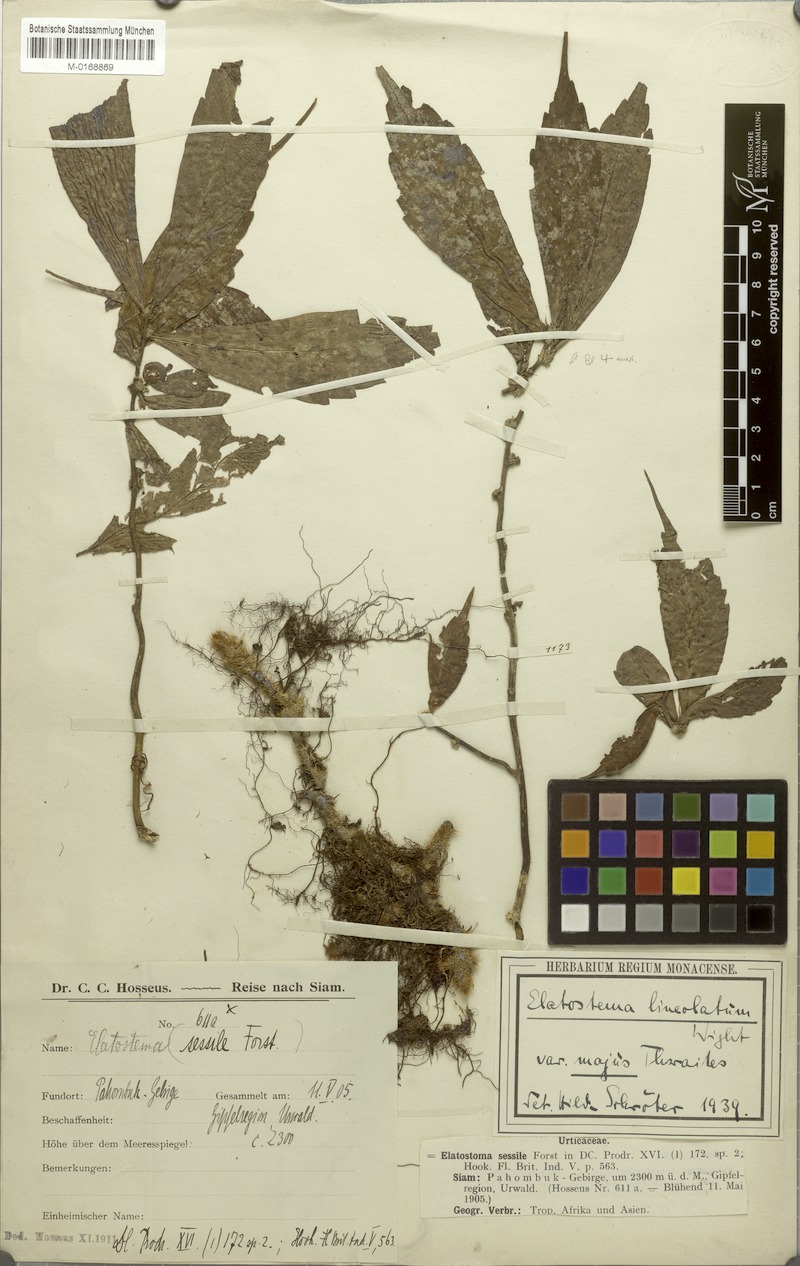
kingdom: Plantae
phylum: Tracheophyta
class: Magnoliopsida
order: Rosales
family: Urticaceae
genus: Elatostema
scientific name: Elatostema lineolatum
